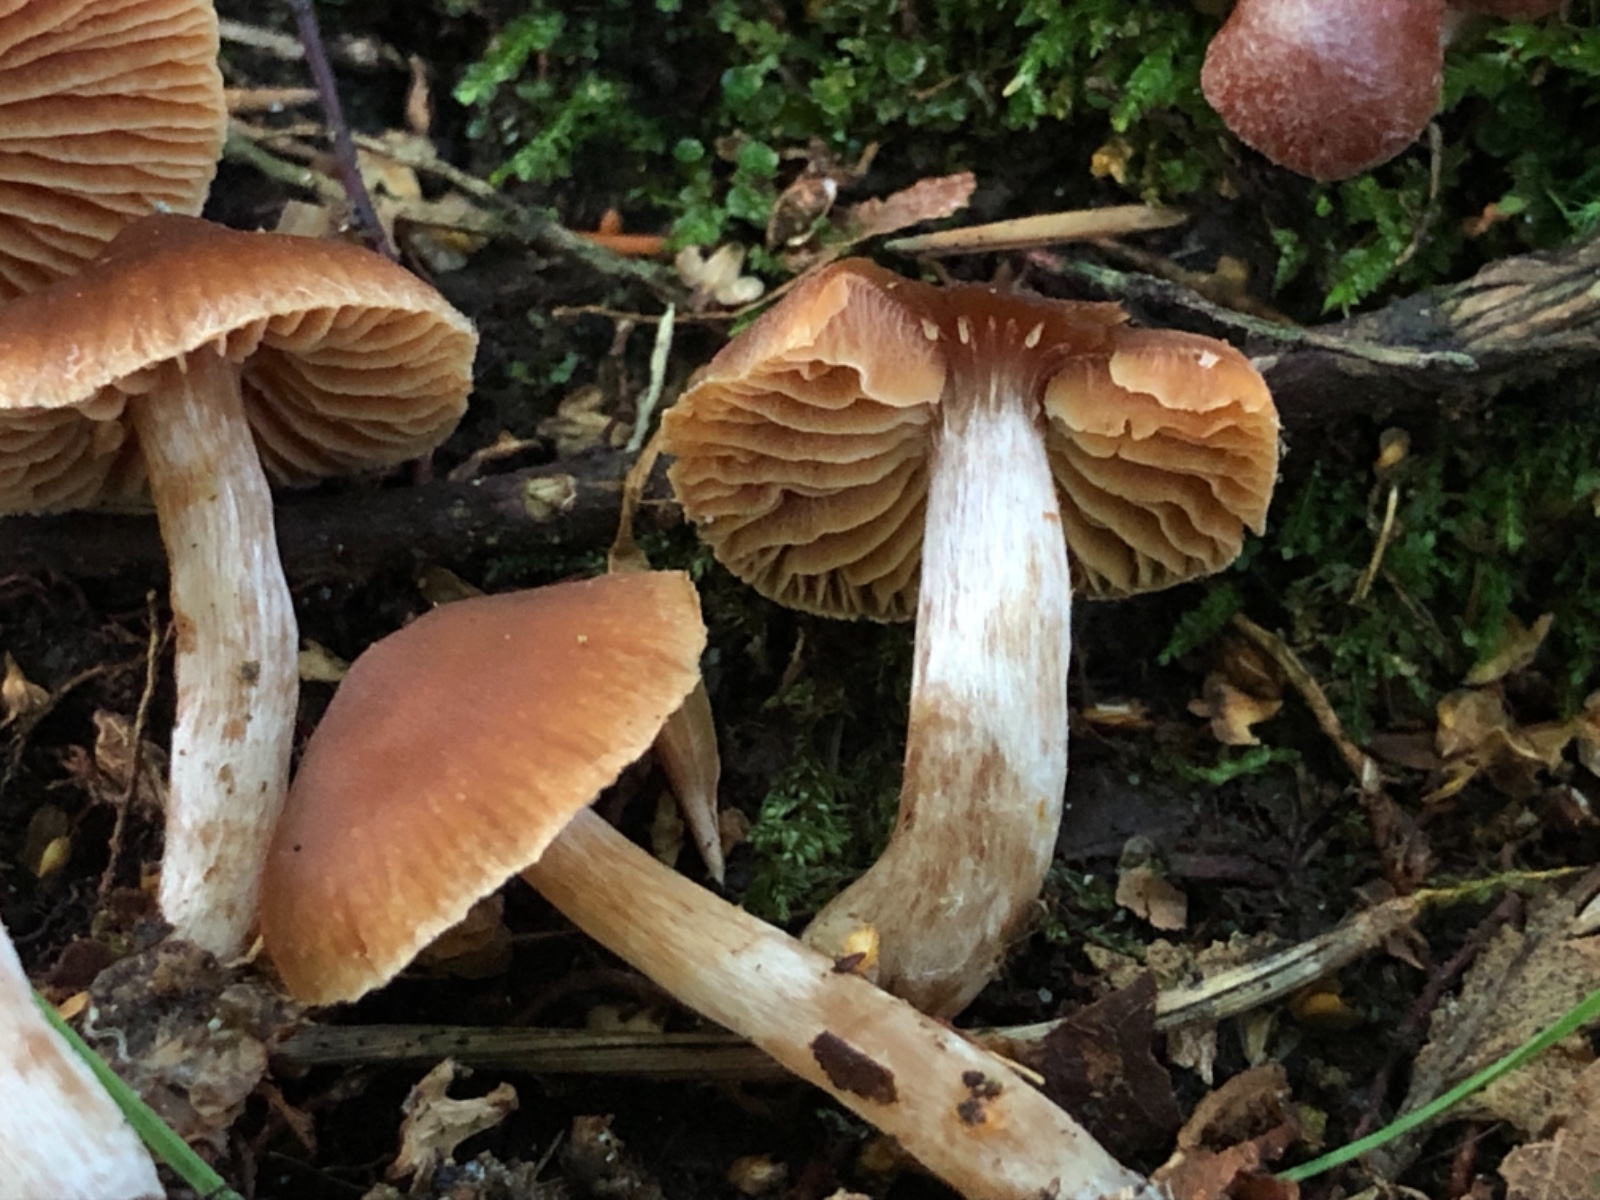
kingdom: Fungi
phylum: Basidiomycota
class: Agaricomycetes
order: Agaricales
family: Cortinariaceae
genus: Cortinarius
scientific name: Cortinarius mammillatus
